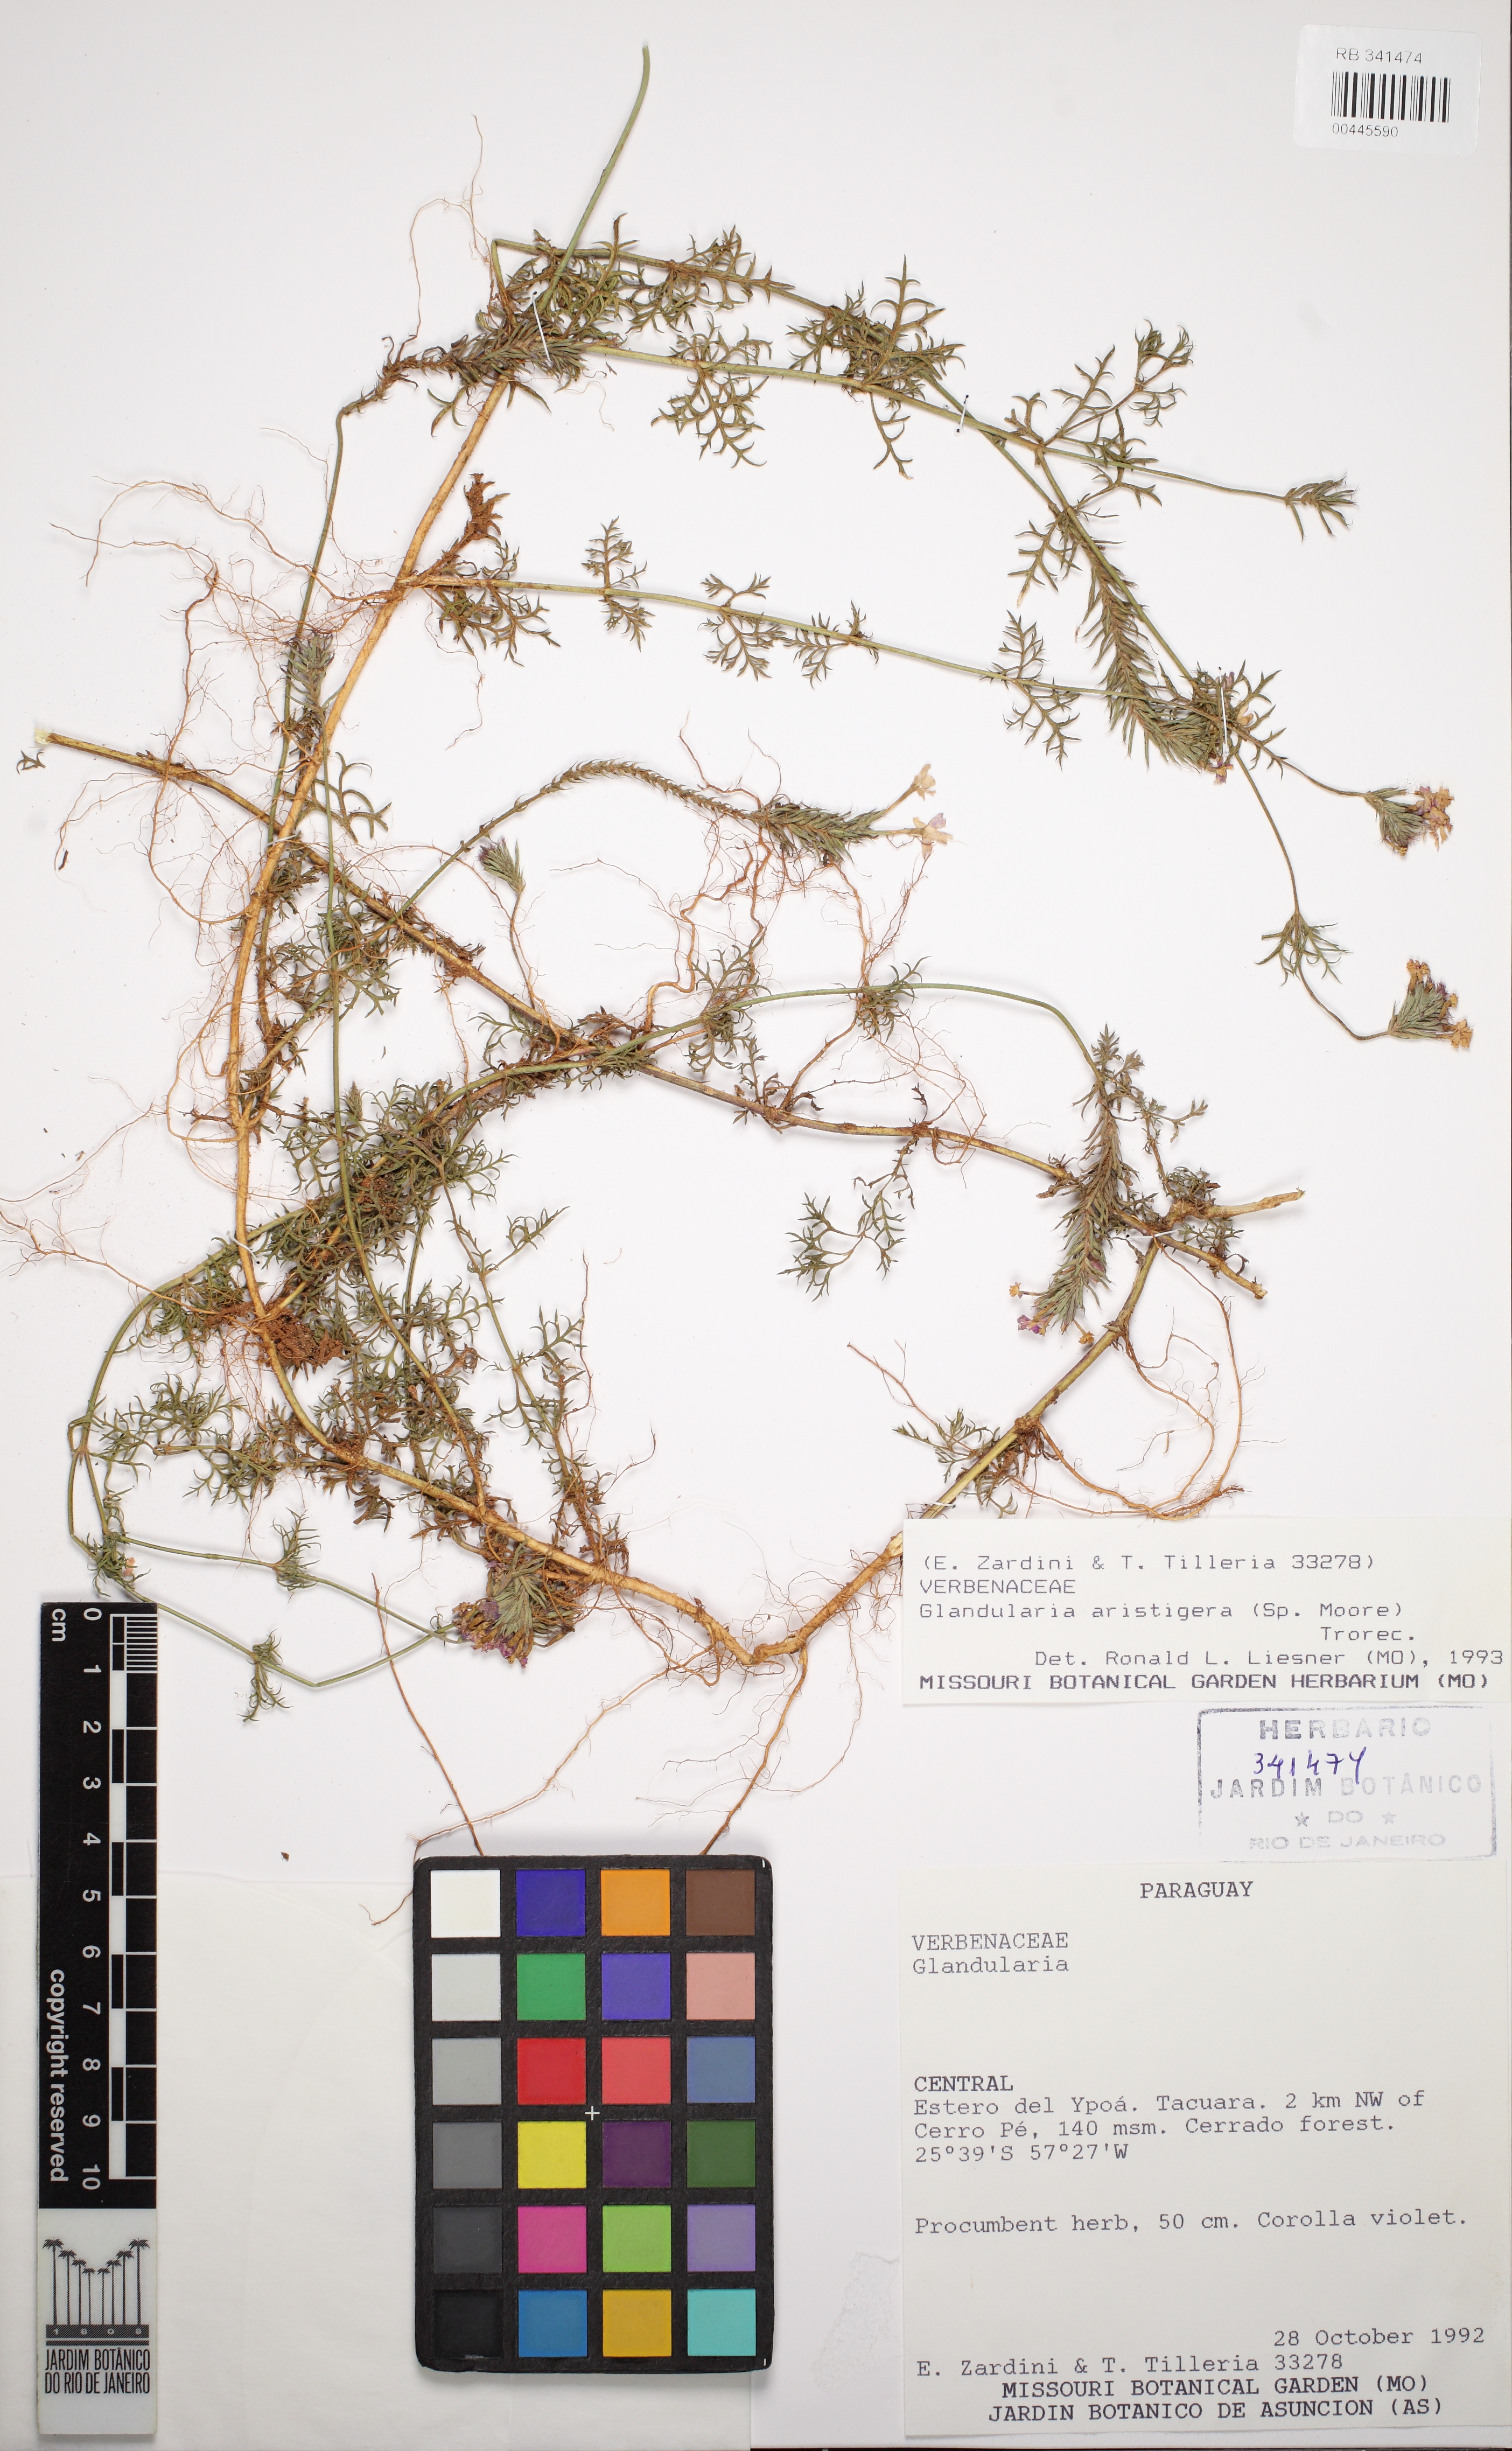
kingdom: Plantae
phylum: Tracheophyta
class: Magnoliopsida
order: Lamiales
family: Verbenaceae
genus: Verbena
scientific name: Verbena aristigera
